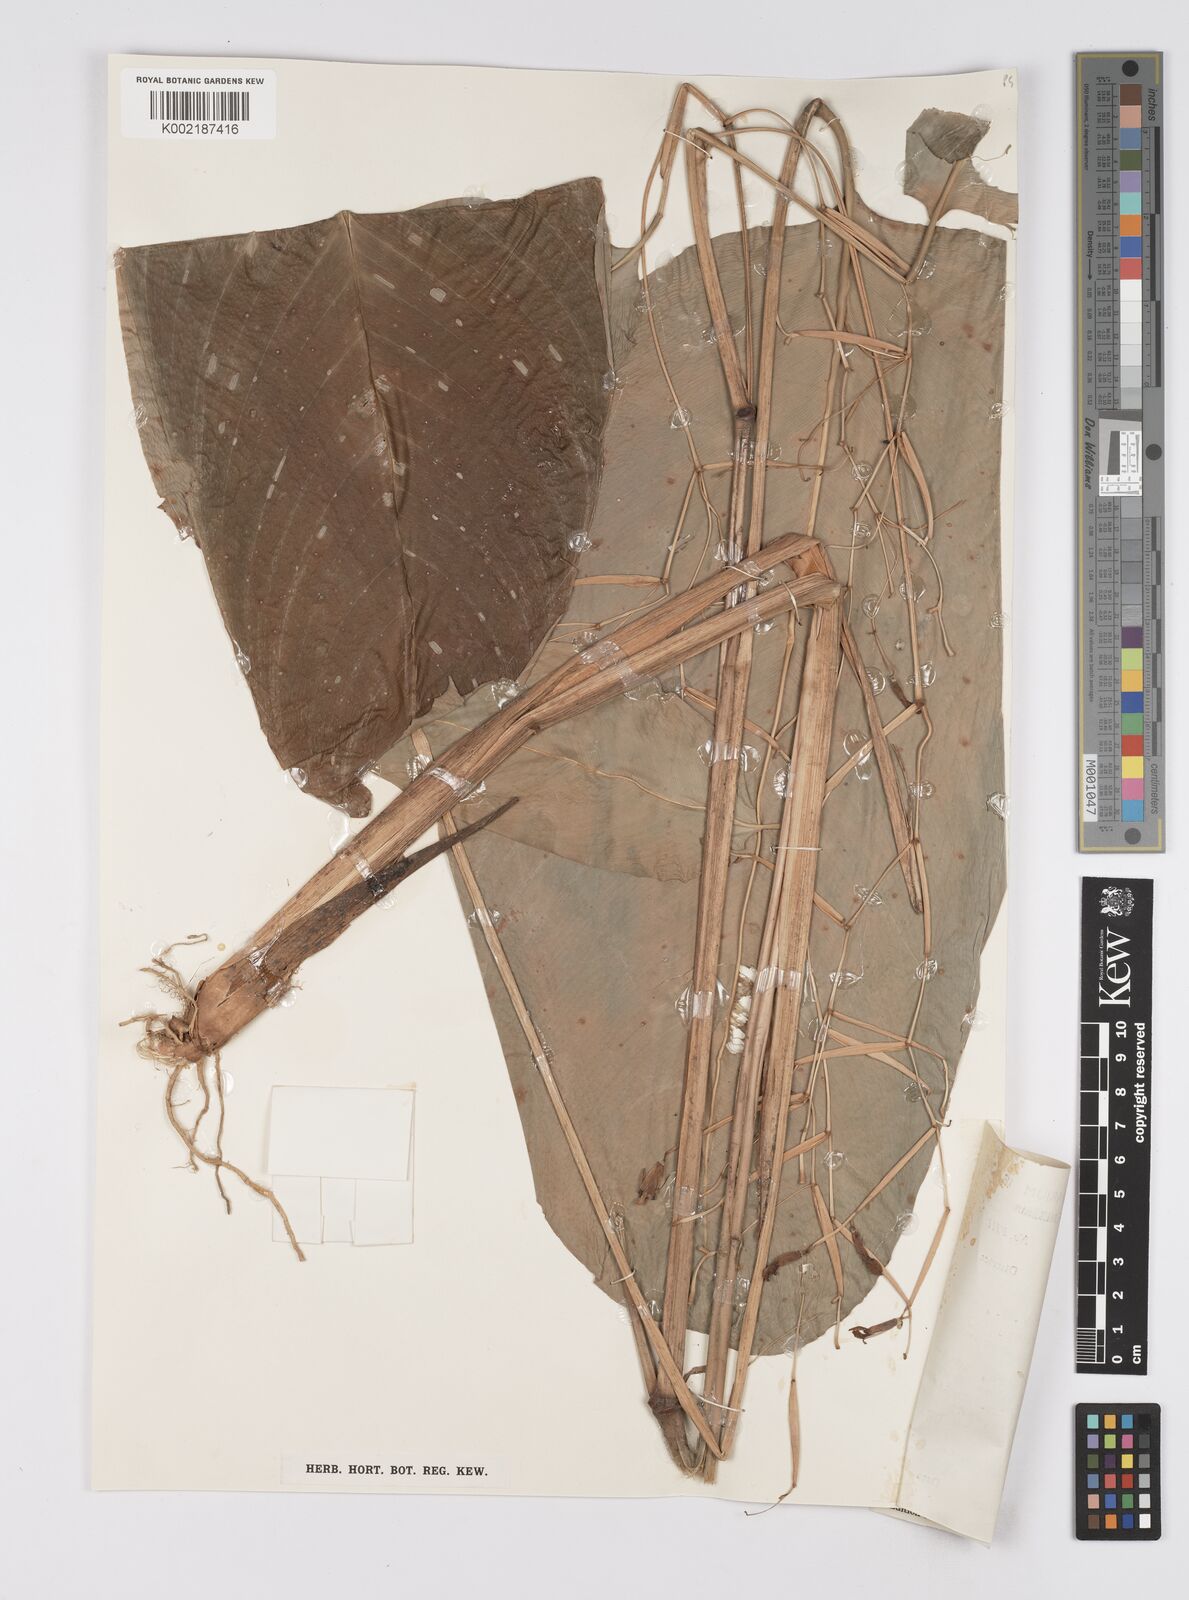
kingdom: Plantae
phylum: Tracheophyta
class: Liliopsida
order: Zingiberales
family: Marantaceae
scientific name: Marantaceae
